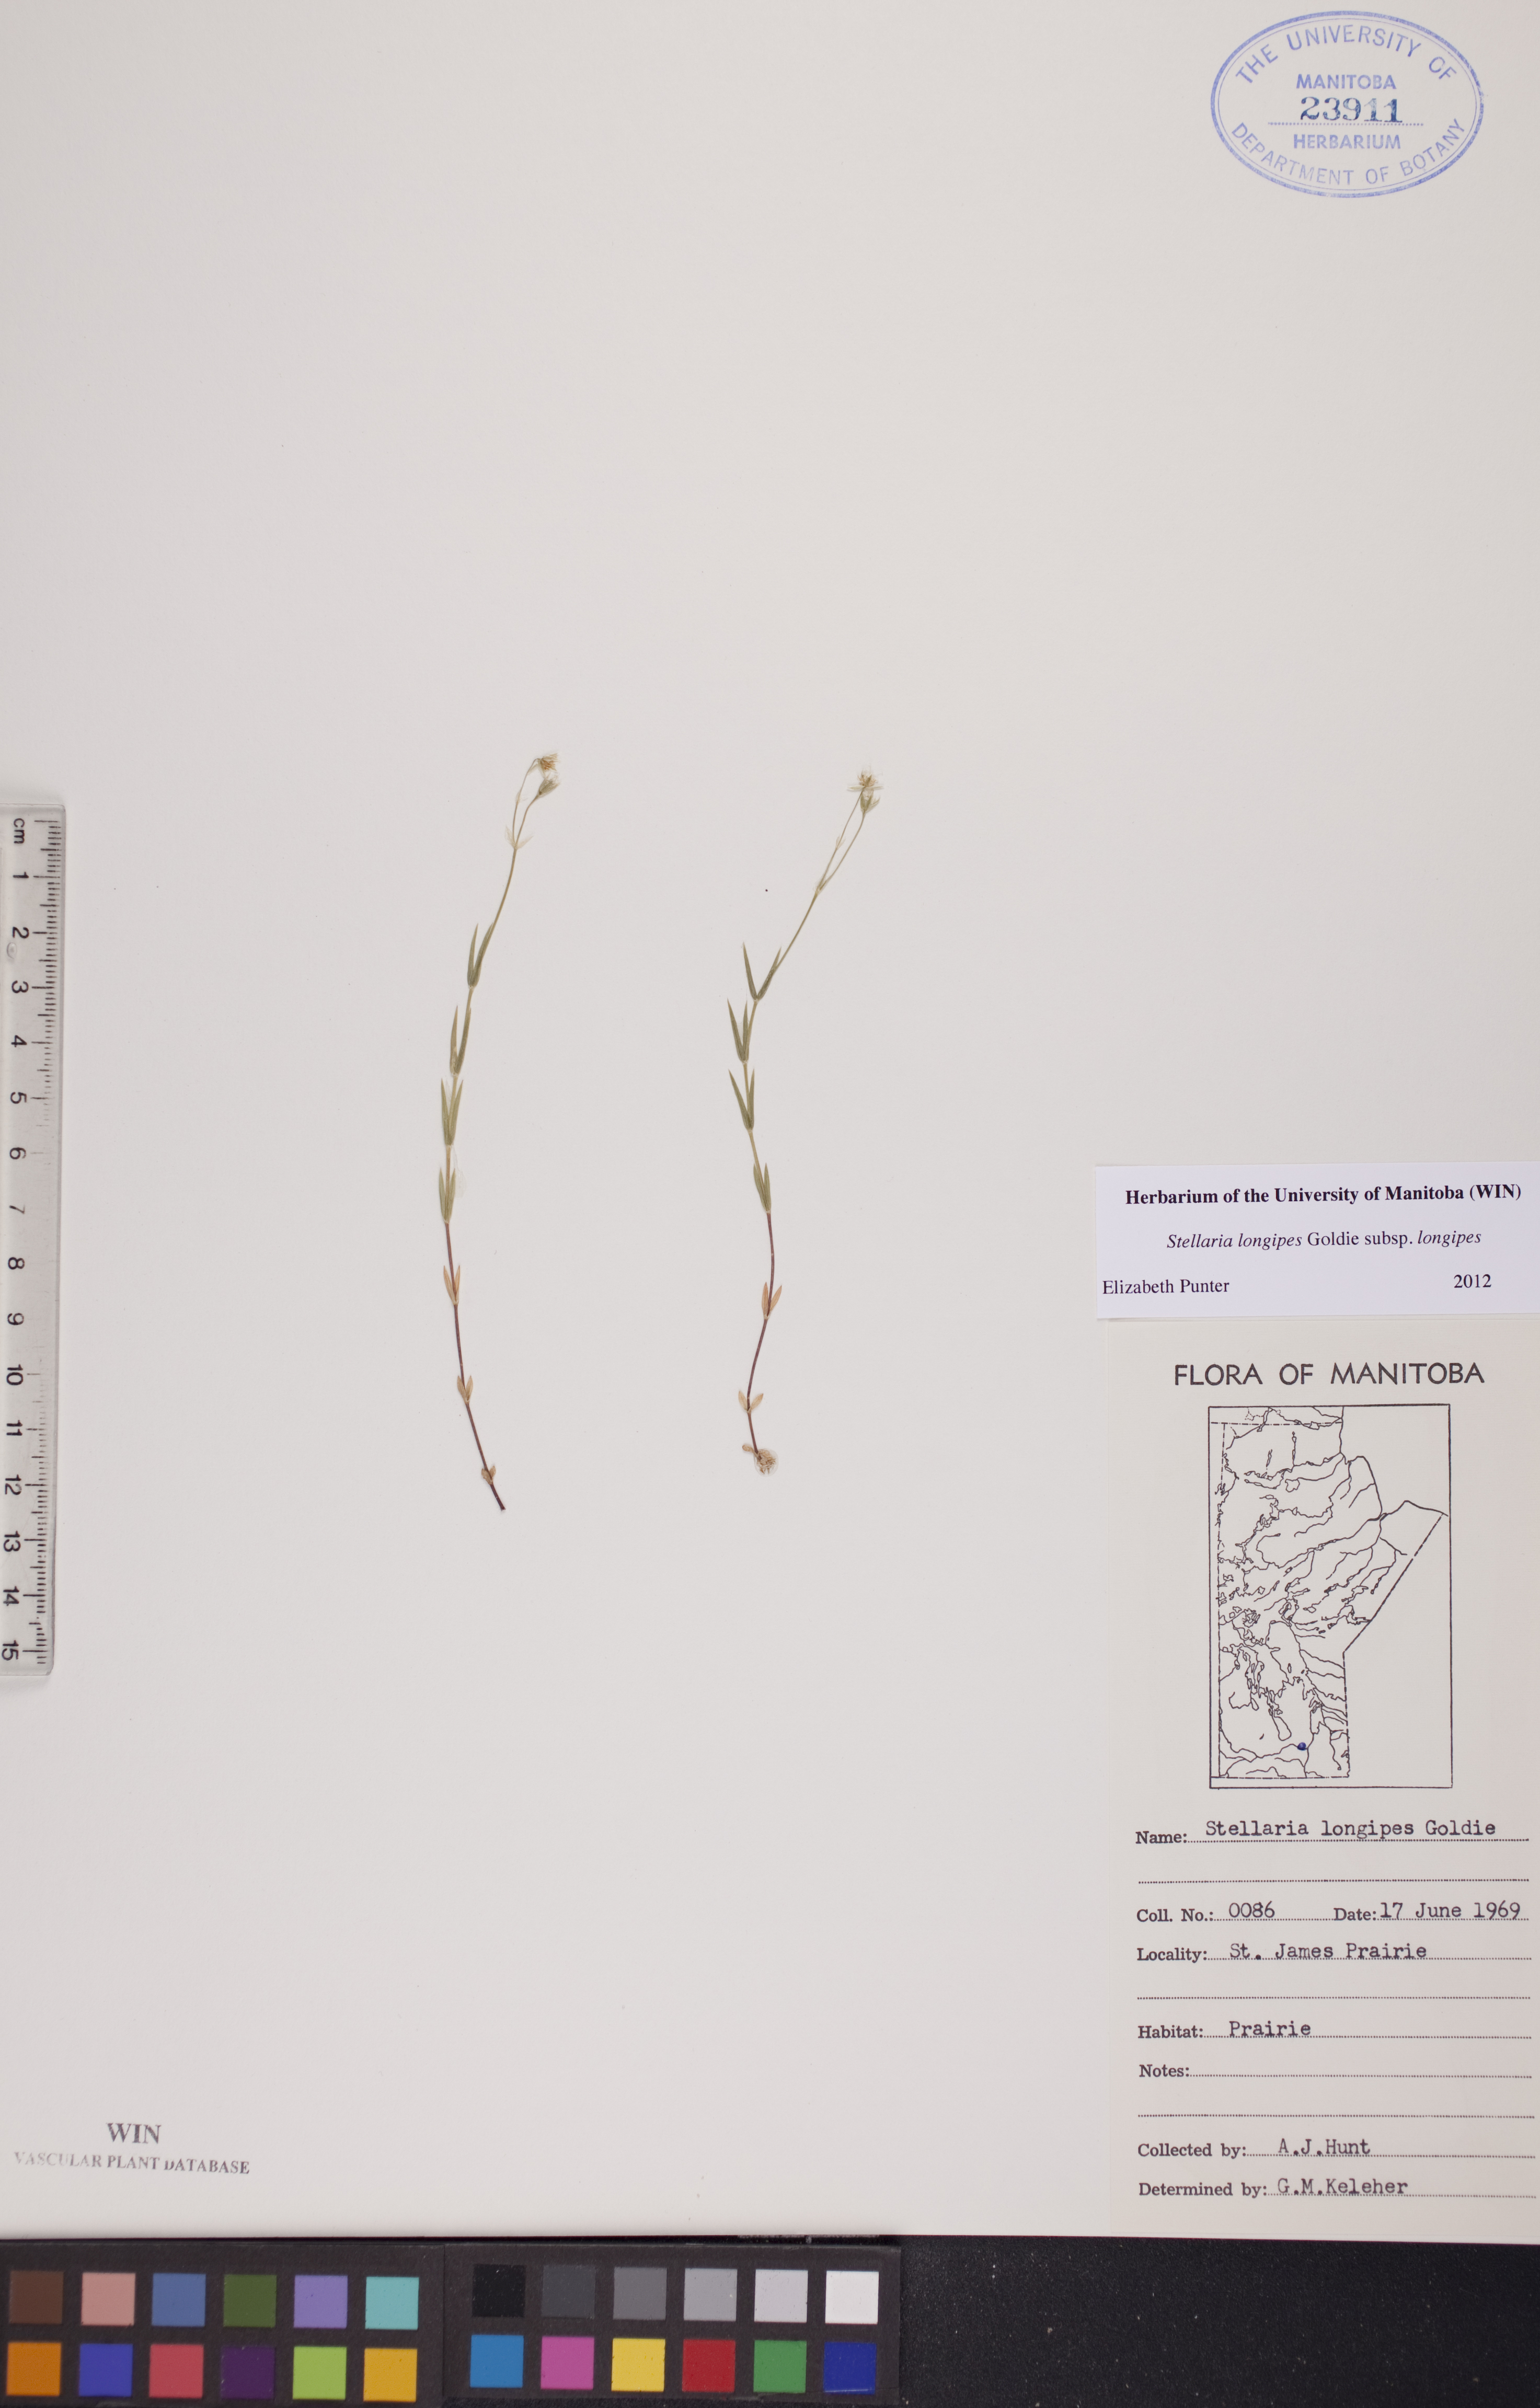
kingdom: Plantae
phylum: Tracheophyta
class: Magnoliopsida
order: Caryophyllales
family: Caryophyllaceae
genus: Stellaria
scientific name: Stellaria longipes
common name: Goldie's starwort
